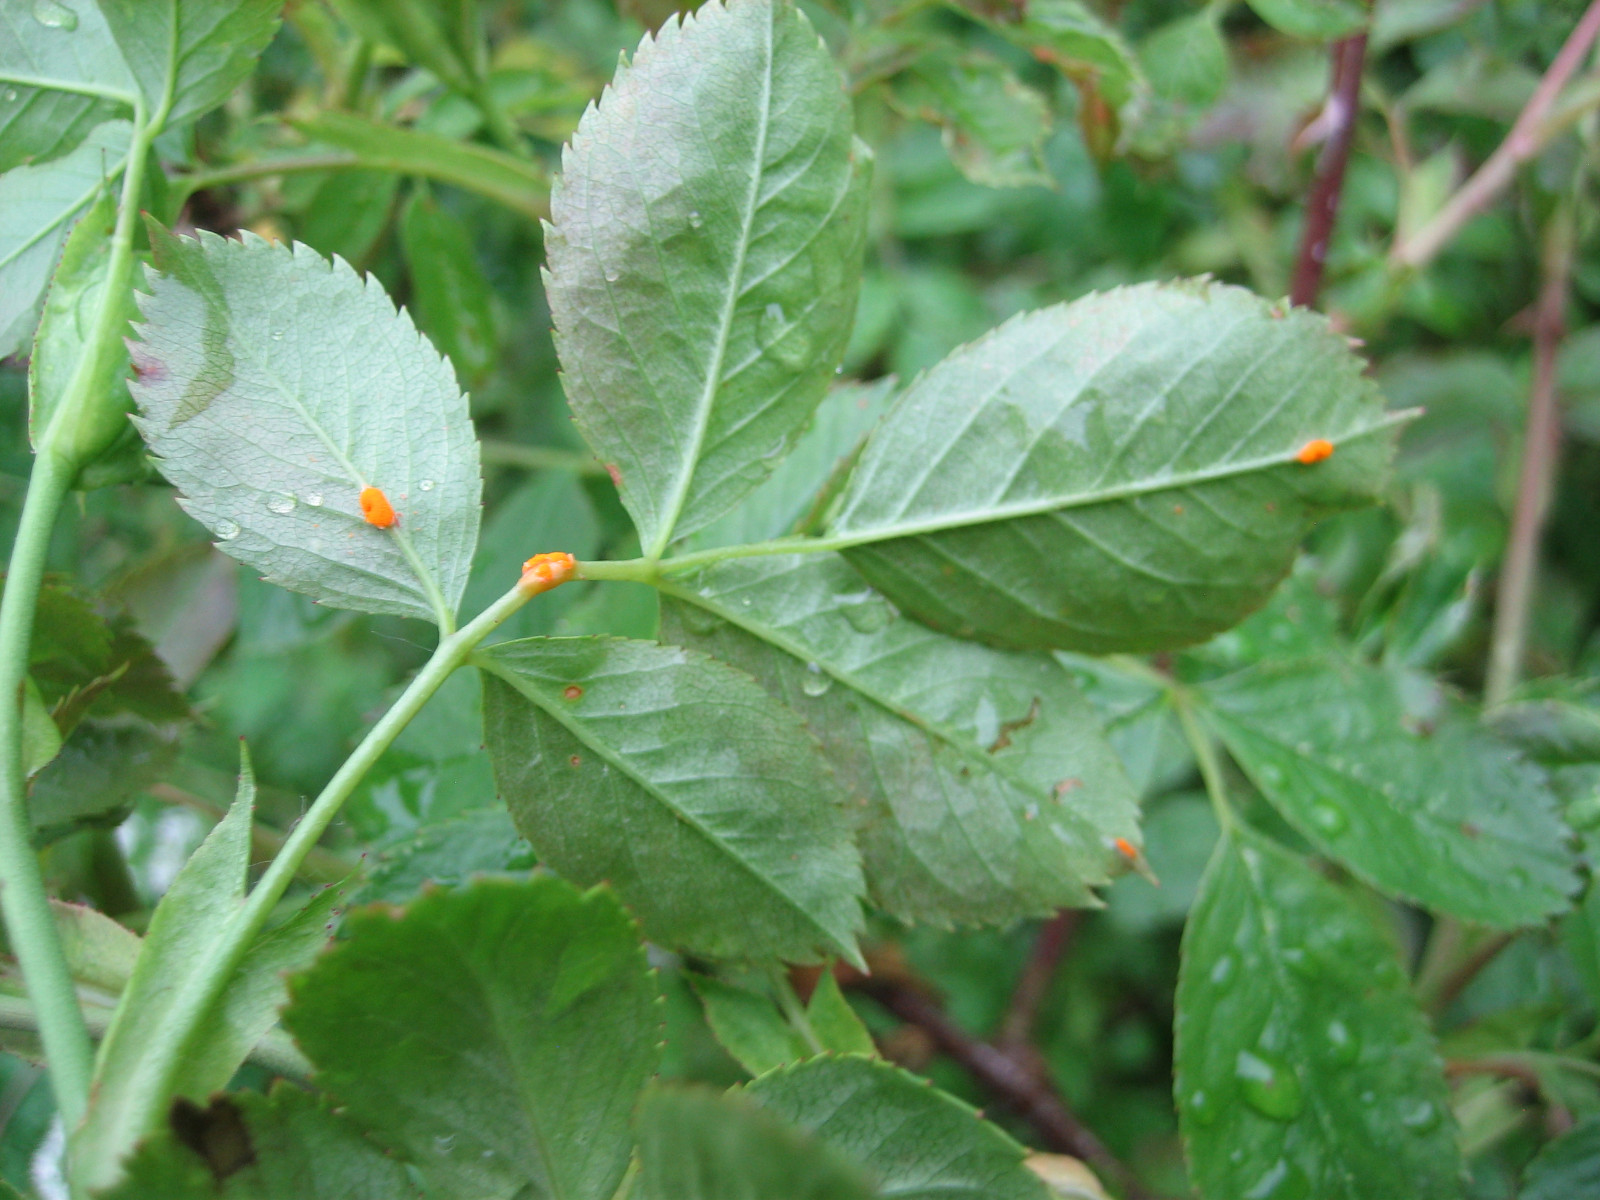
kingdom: Fungi
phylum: Basidiomycota
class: Pucciniomycetes
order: Pucciniales
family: Phragmidiaceae
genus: Phragmidium
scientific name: Phragmidium
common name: flercellerust
